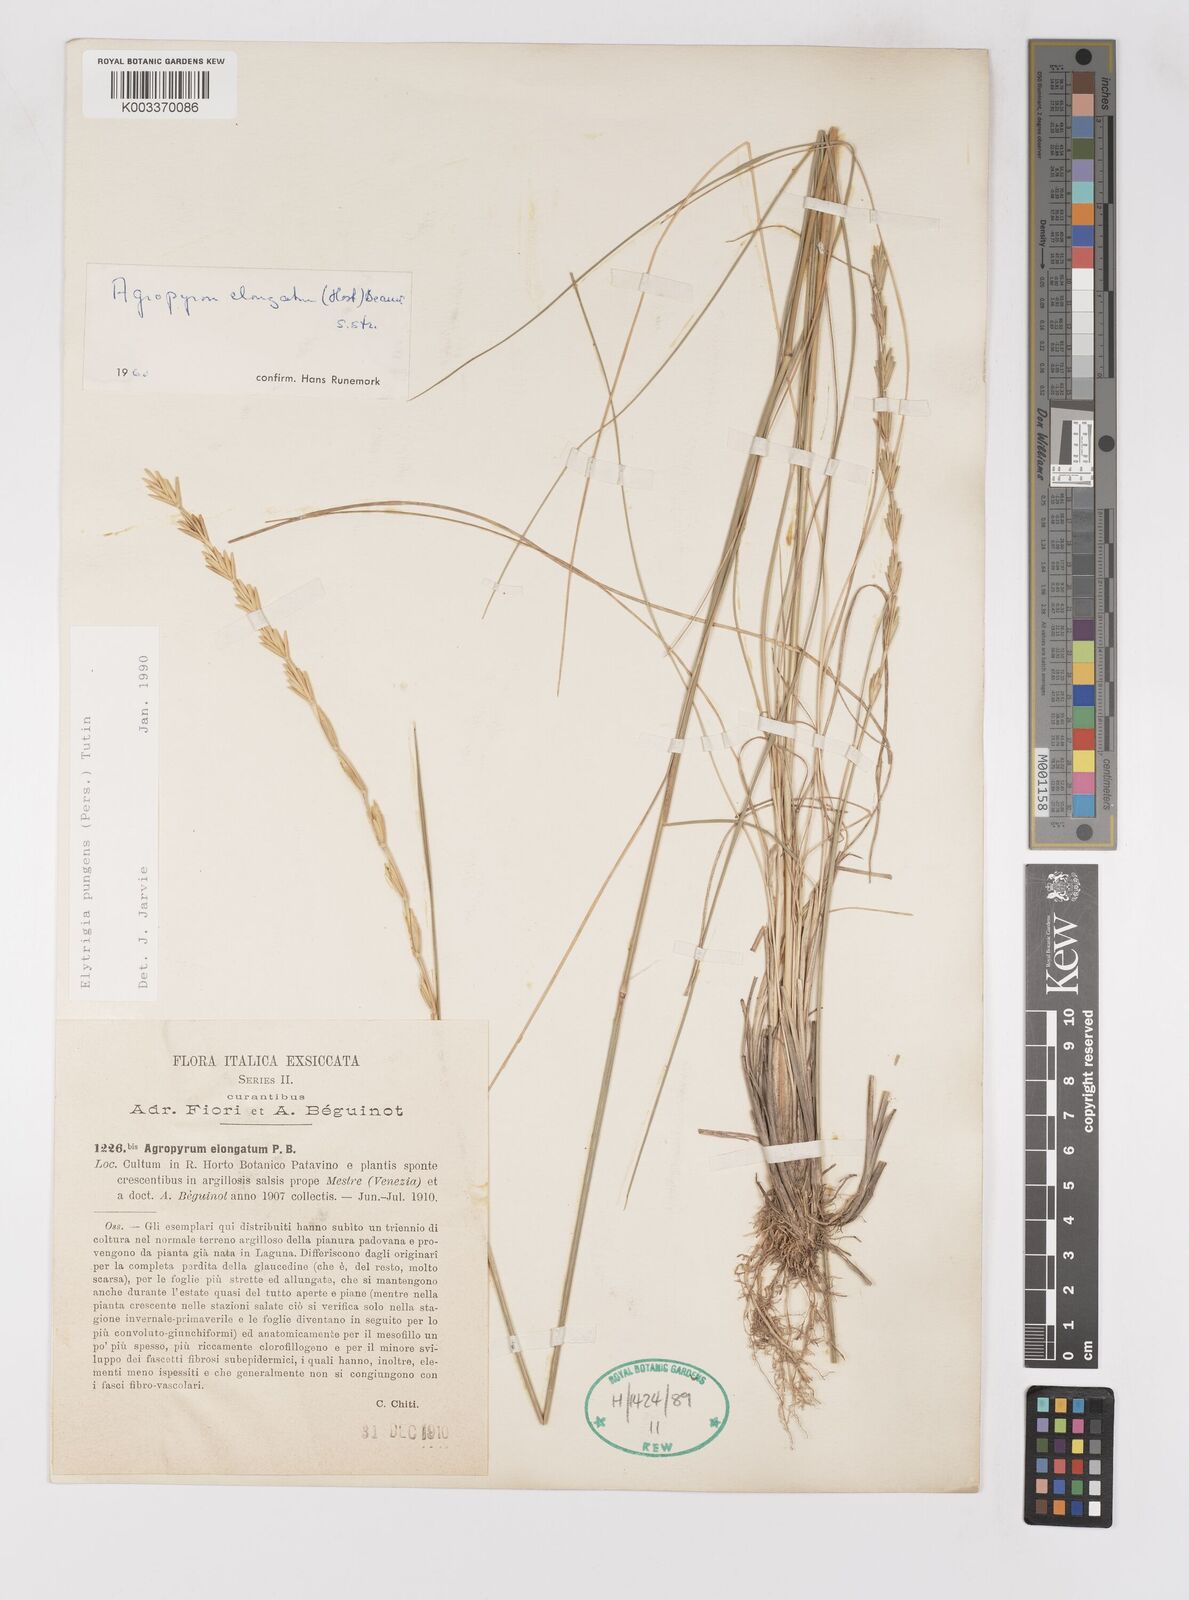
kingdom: Plantae
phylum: Tracheophyta
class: Liliopsida
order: Poales
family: Poaceae
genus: Thinopyrum
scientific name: Thinopyrum elongatum
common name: Tall wheatgrass
